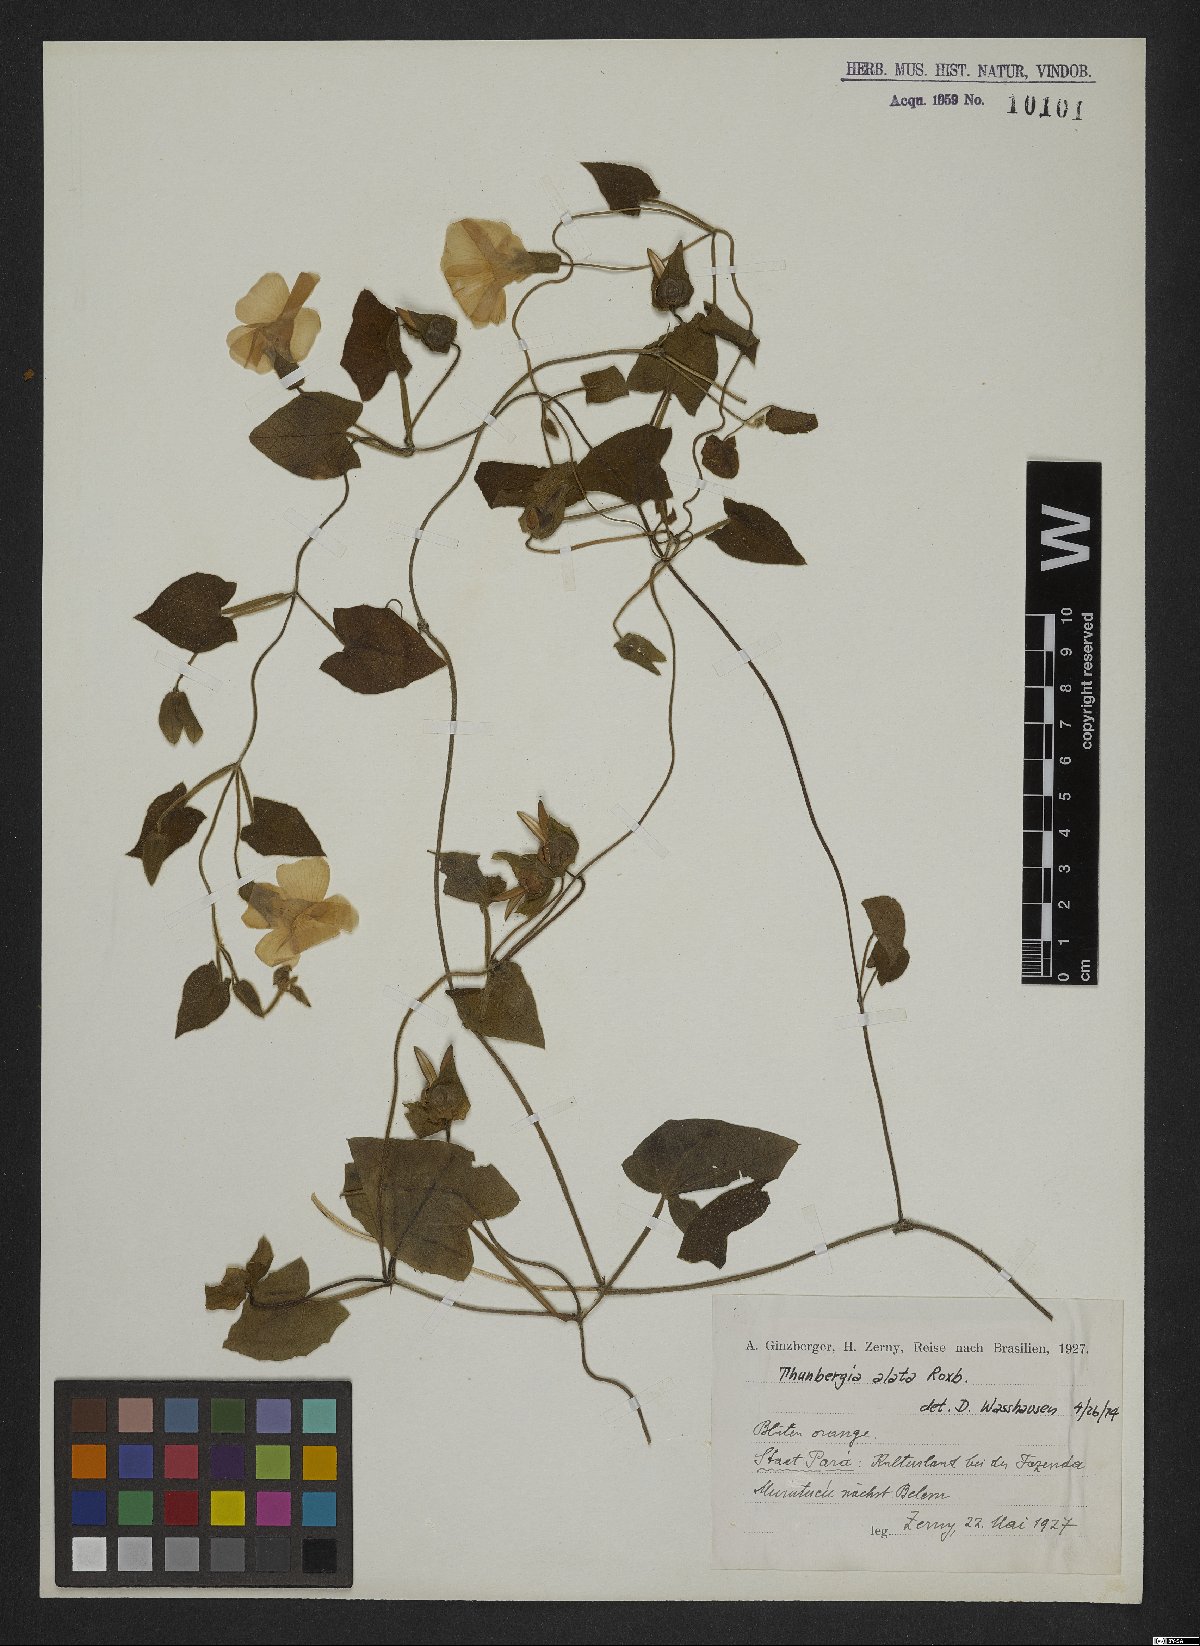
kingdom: Plantae
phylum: Tracheophyta
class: Magnoliopsida
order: Lamiales
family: Acanthaceae
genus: Thunbergia
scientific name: Thunbergia alata
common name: Blackeyed susan vine
